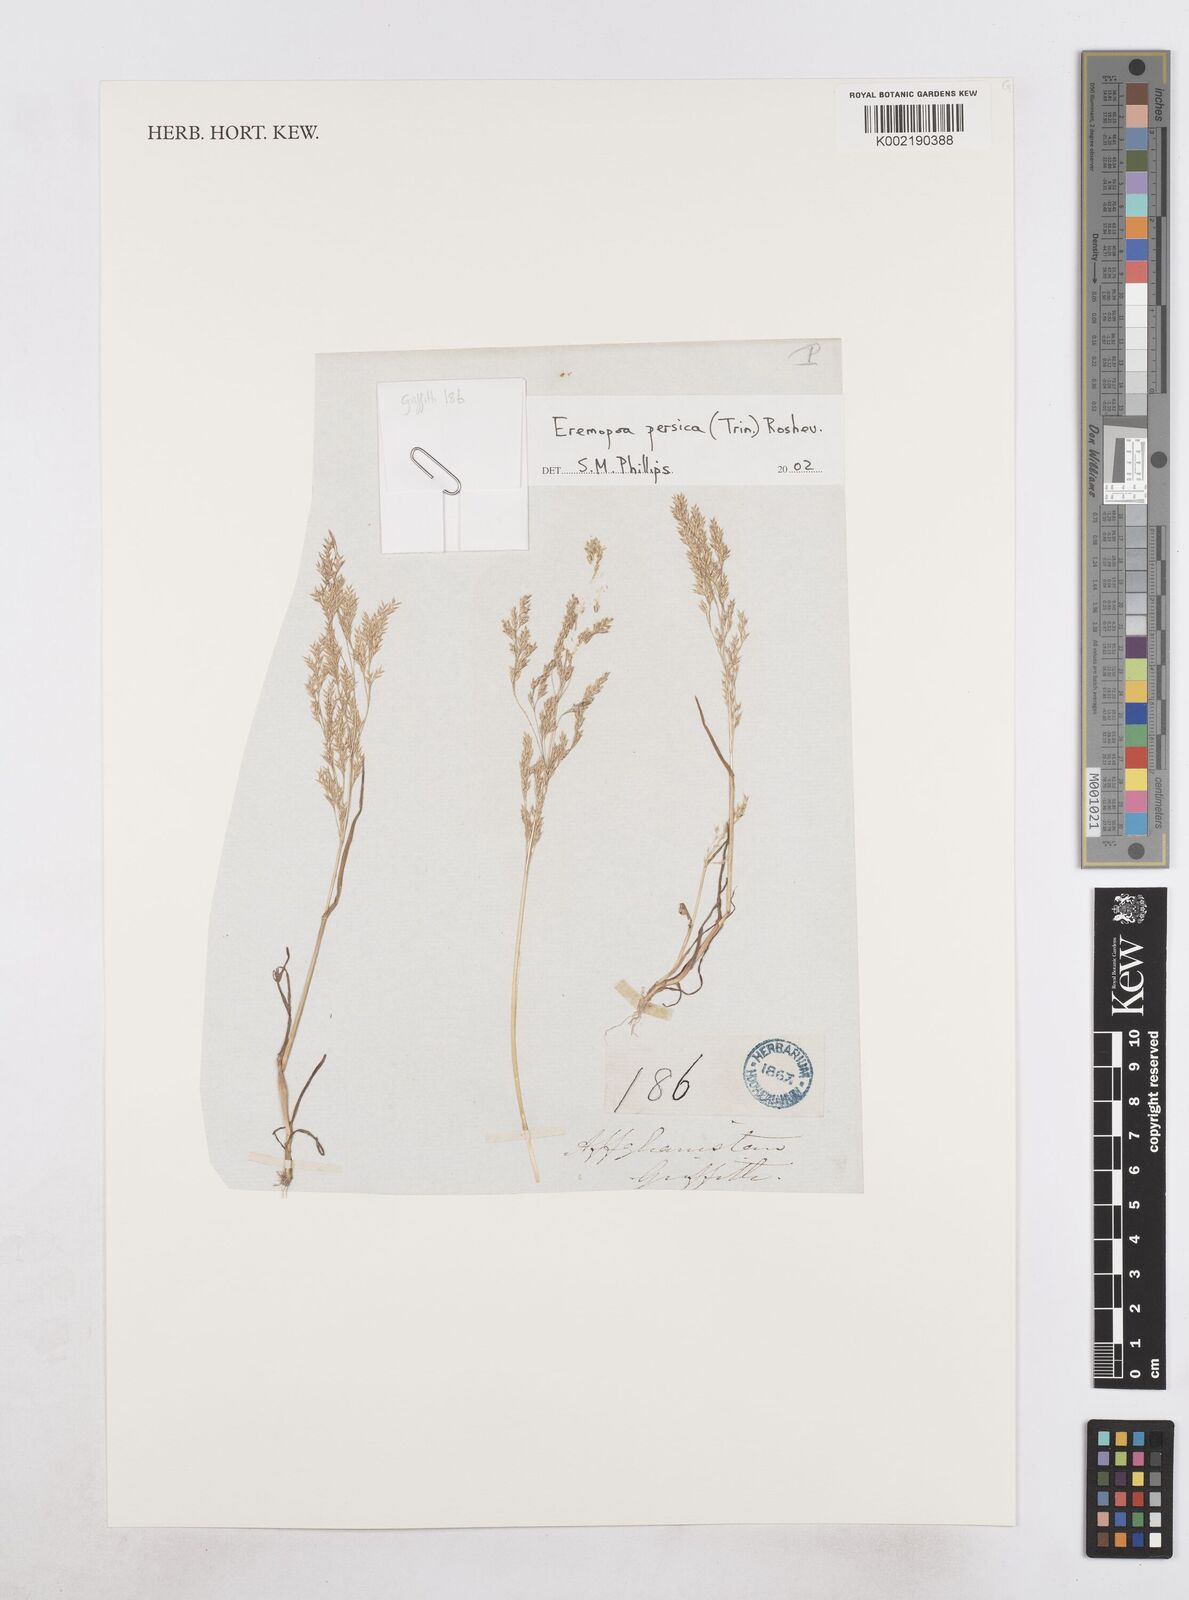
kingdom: Plantae
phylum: Tracheophyta
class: Liliopsida
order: Poales
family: Poaceae
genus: Poa
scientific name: Poa persica
